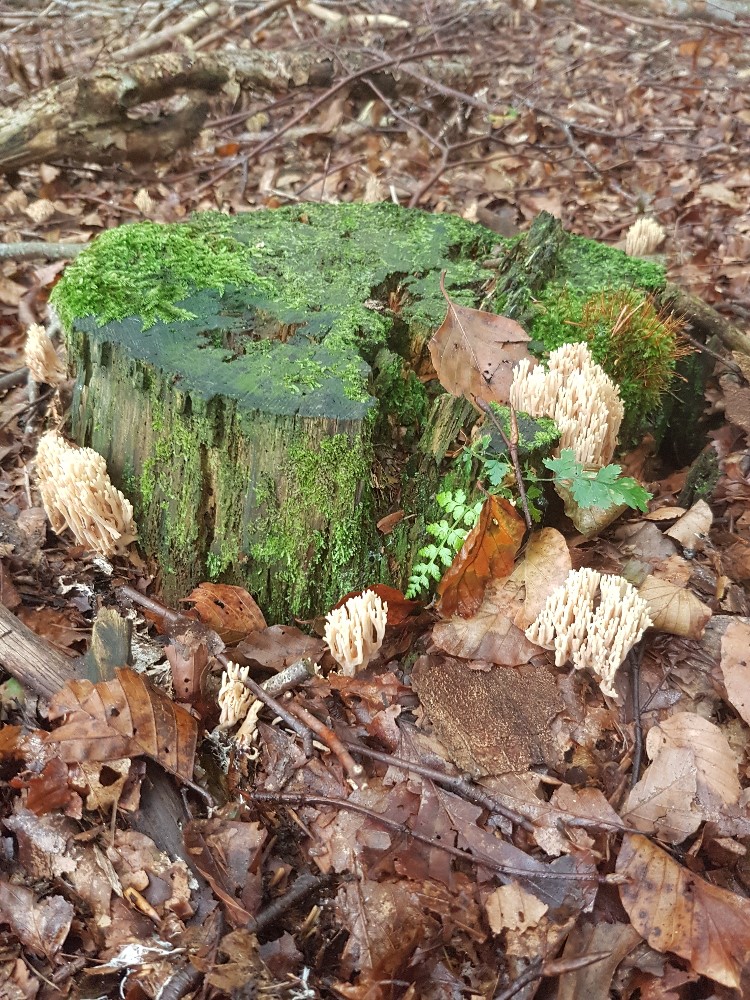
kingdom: Fungi
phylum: Basidiomycota
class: Agaricomycetes
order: Gomphales
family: Gomphaceae
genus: Ramaria
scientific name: Ramaria stricta
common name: rank koralsvamp
